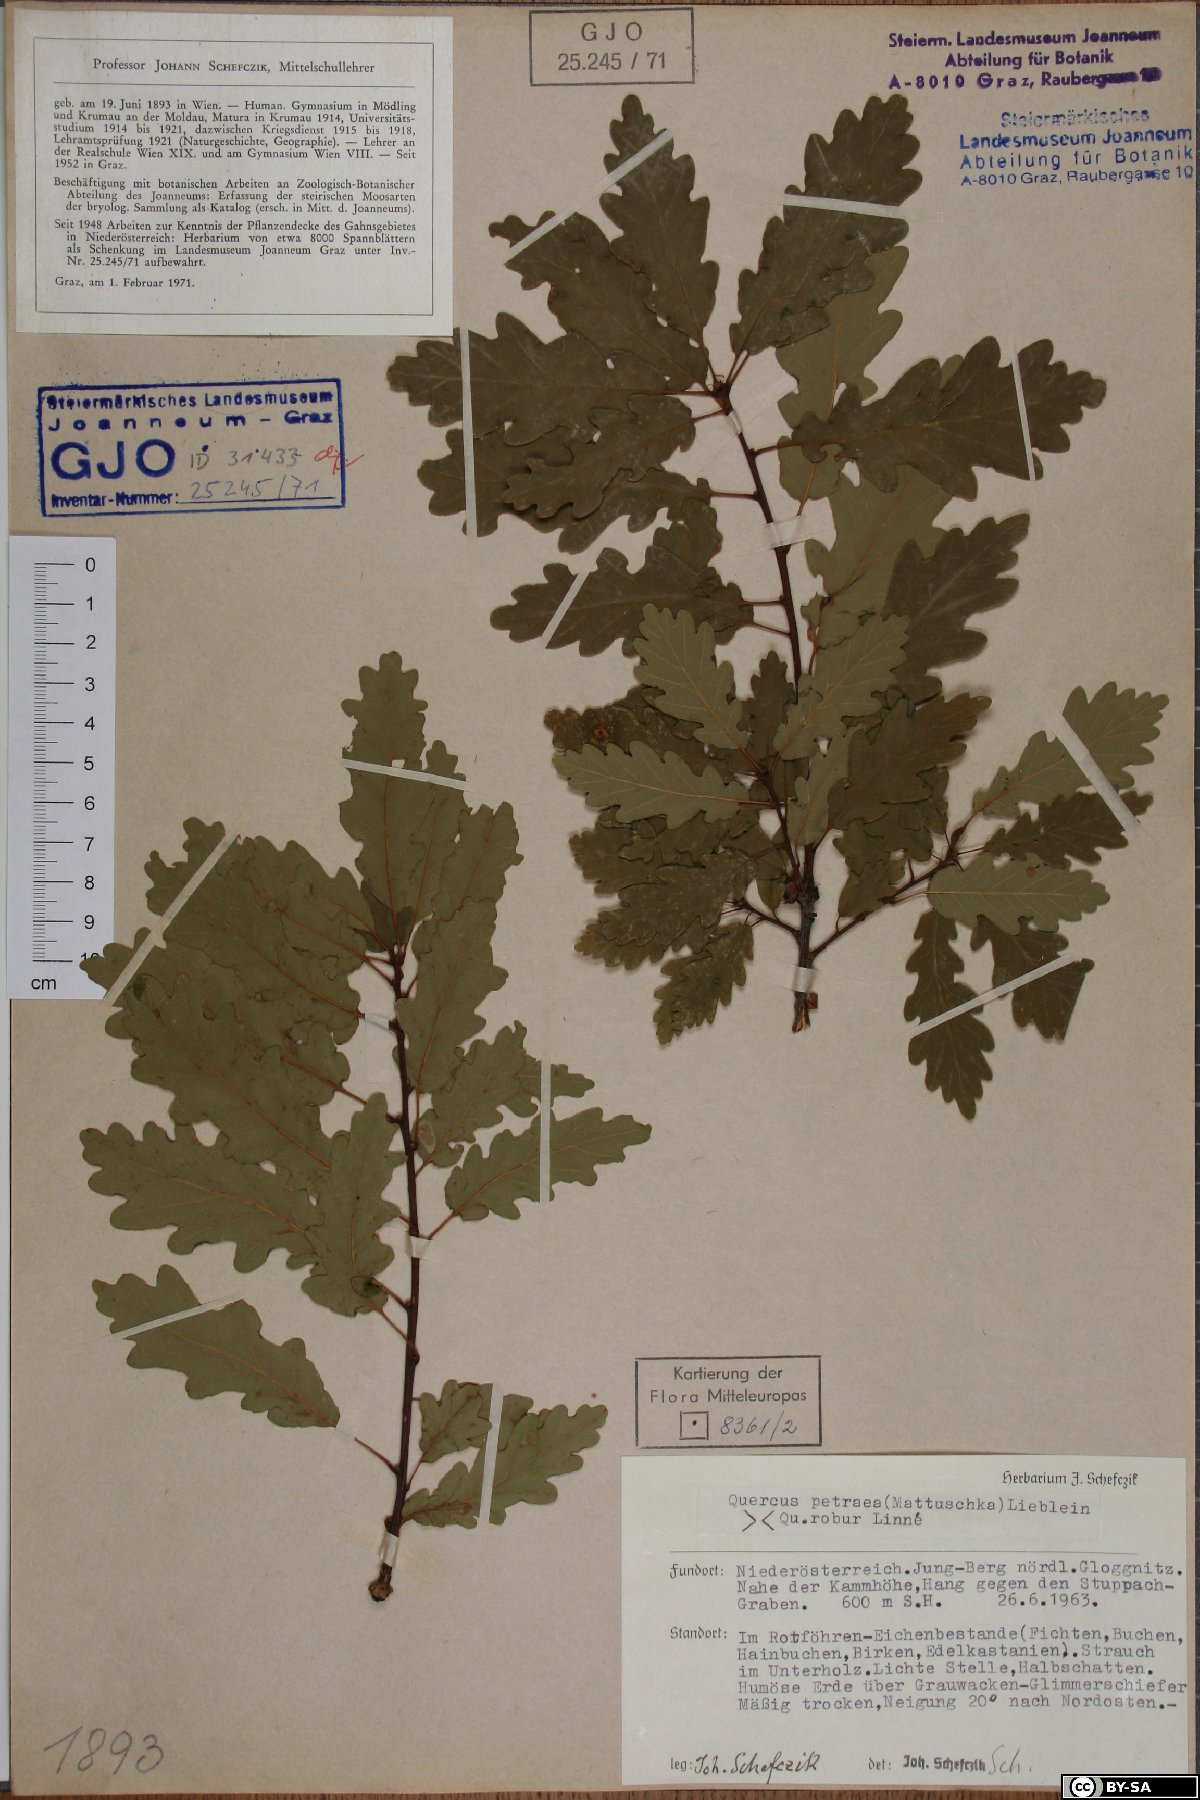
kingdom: Plantae
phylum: Tracheophyta
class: Magnoliopsida
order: Fagales
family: Fagaceae
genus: Quercus
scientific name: Quercus petraea
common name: Sessile oak
